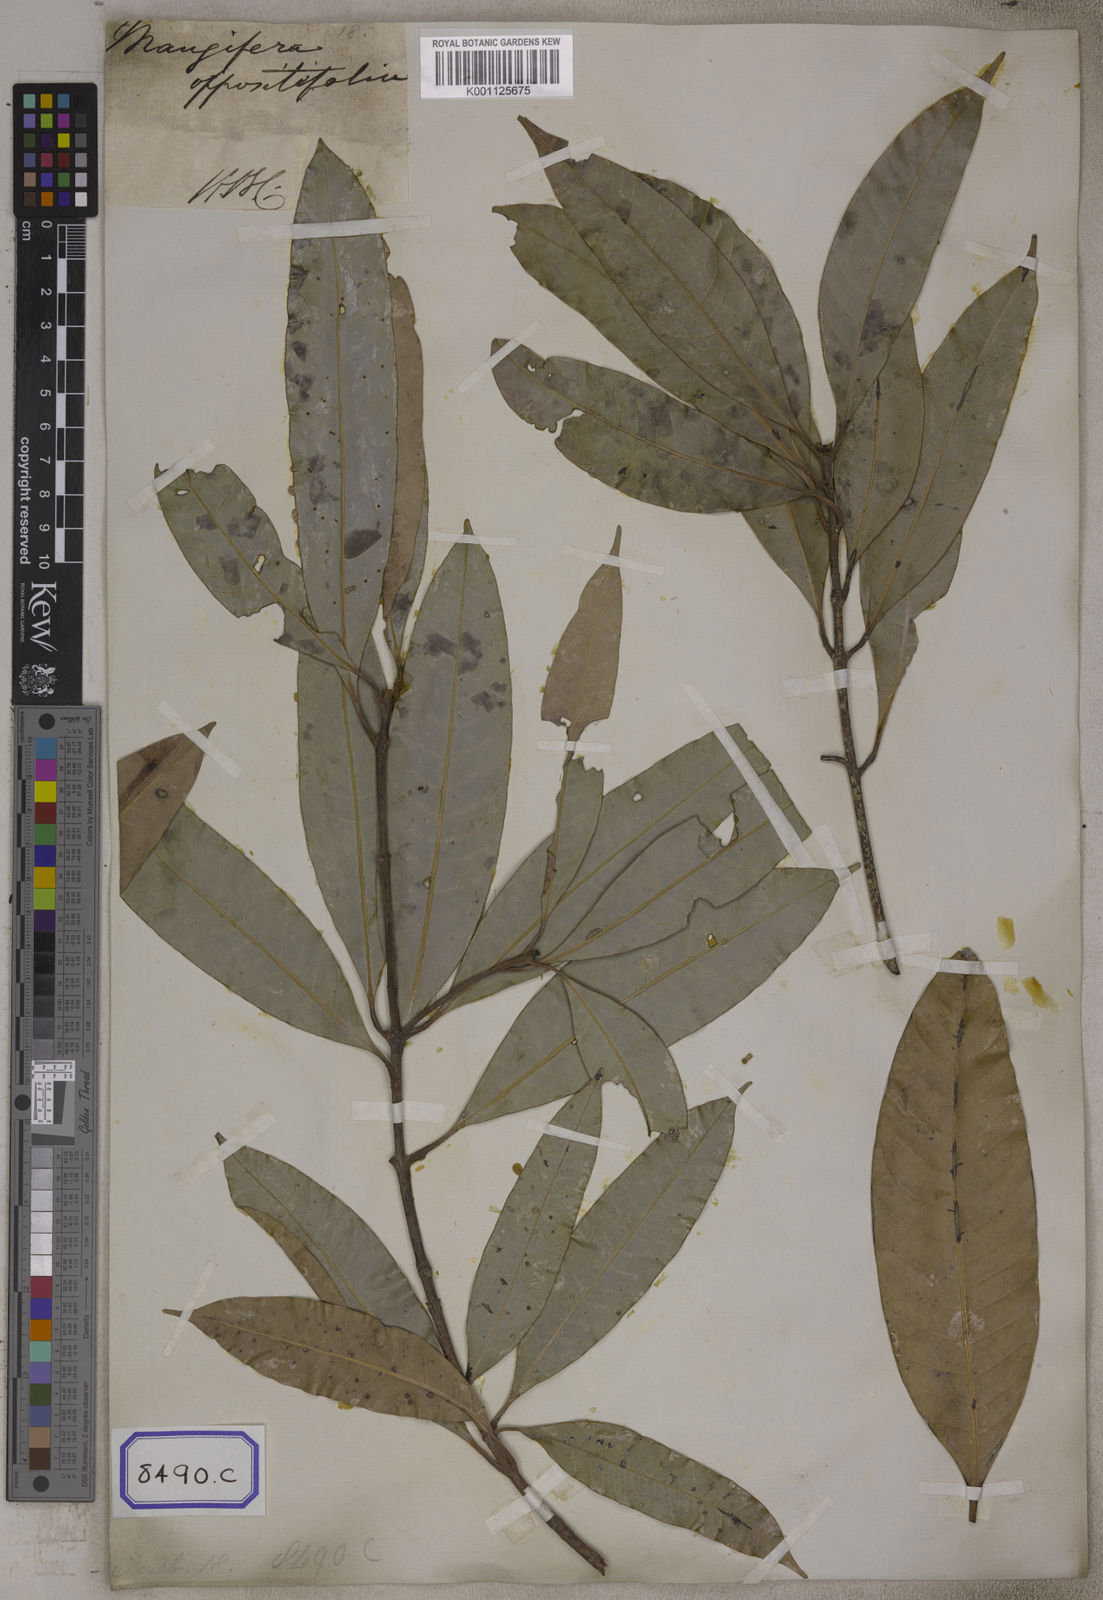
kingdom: Plantae
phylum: Tracheophyta
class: Magnoliopsida
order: Sapindales
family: Anacardiaceae
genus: Bouea
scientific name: Bouea oppositifolia
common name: Narrow-leaved kundang
